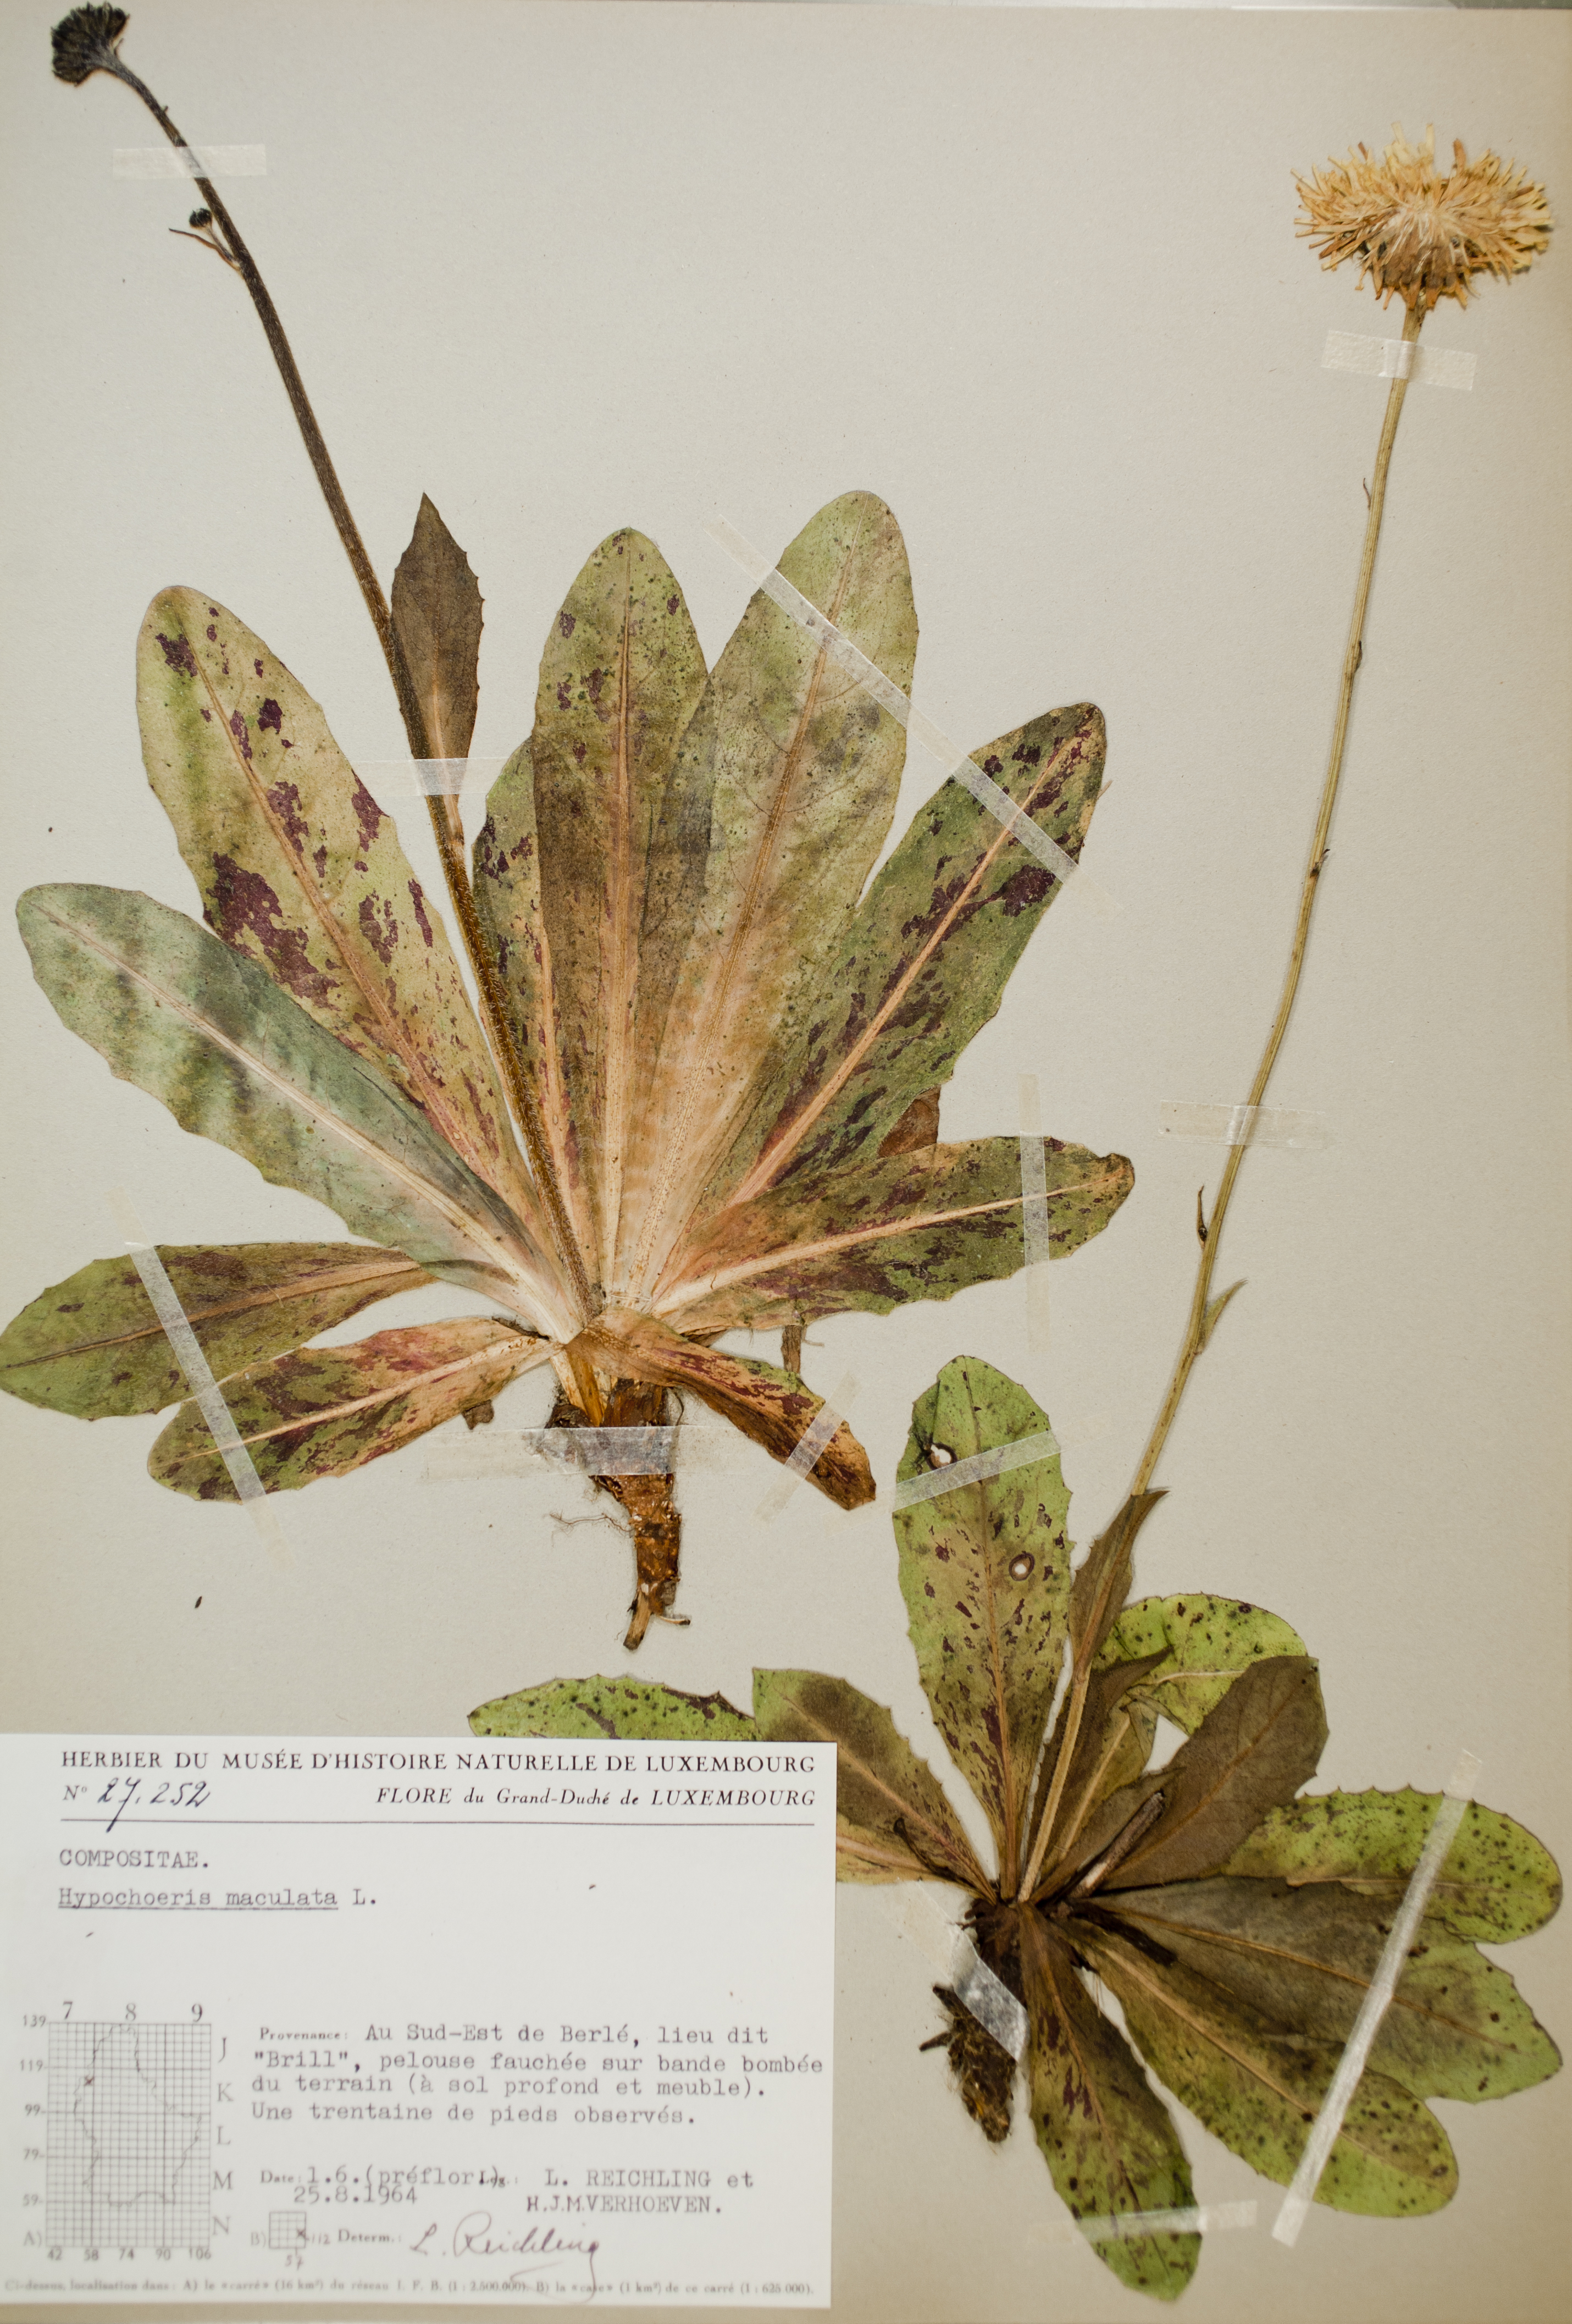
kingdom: Plantae
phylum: Tracheophyta
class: Magnoliopsida
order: Asterales
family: Asteraceae
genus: Trommsdorffia
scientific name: Trommsdorffia maculata
